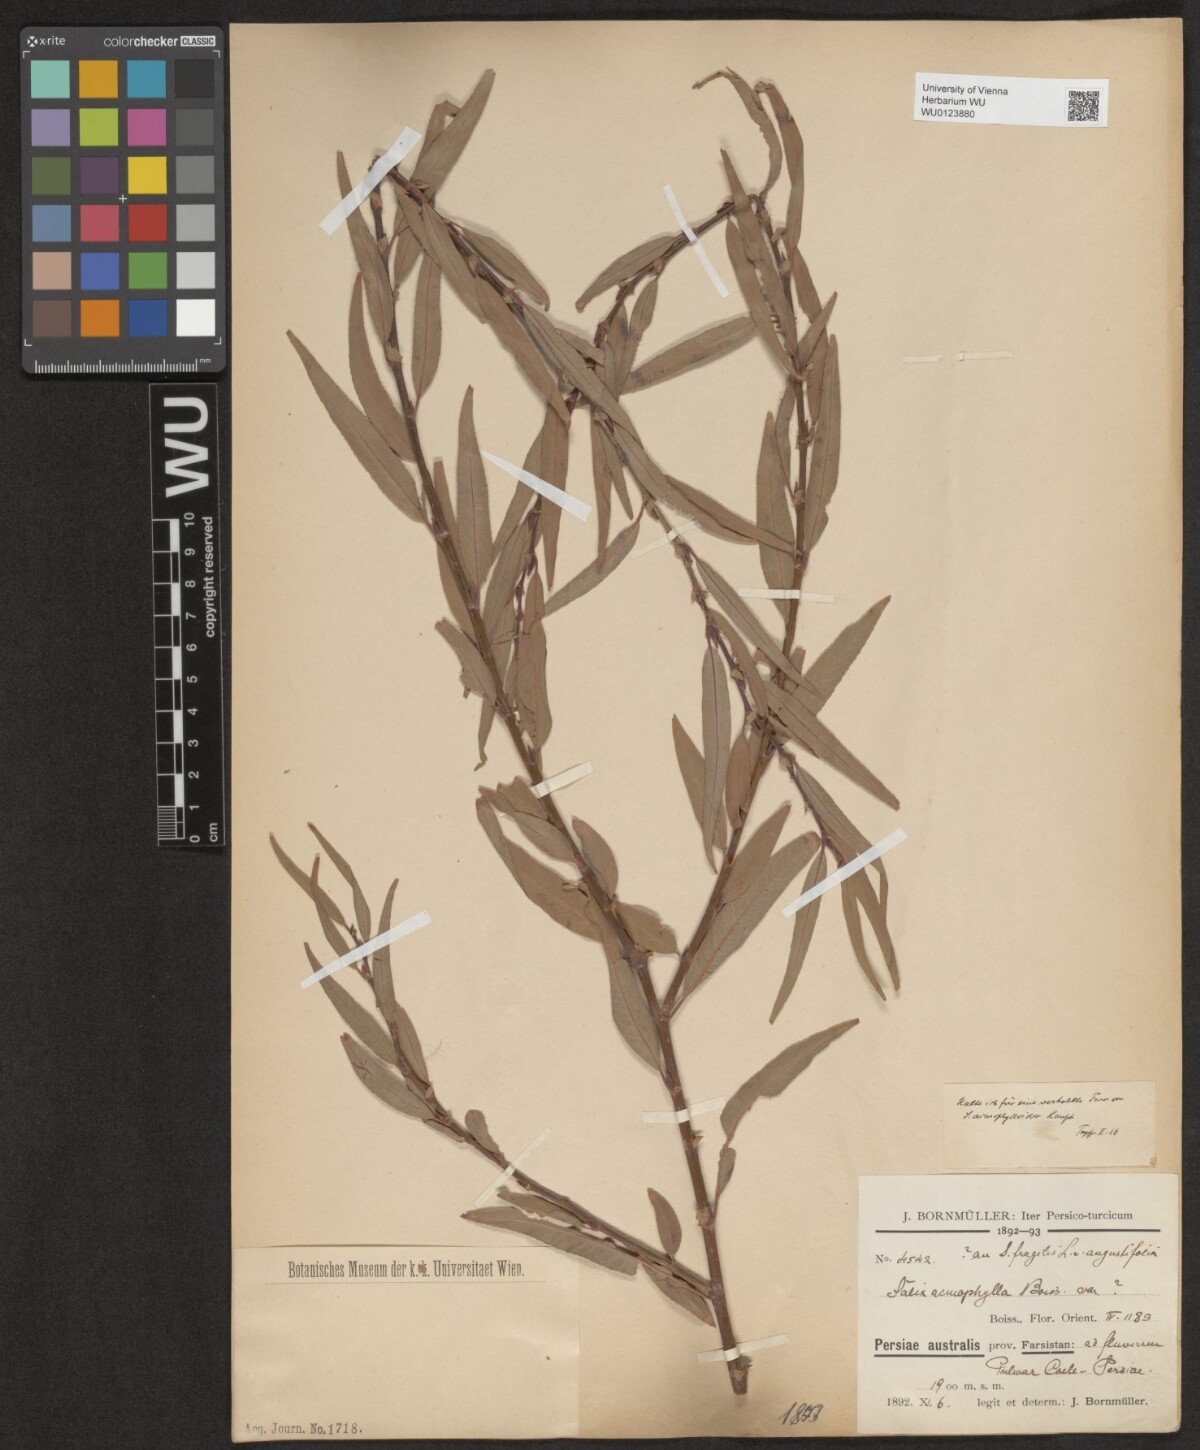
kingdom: Plantae
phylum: Tracheophyta
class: Magnoliopsida
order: Malpighiales
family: Salicaceae
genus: Salix
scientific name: Salix
